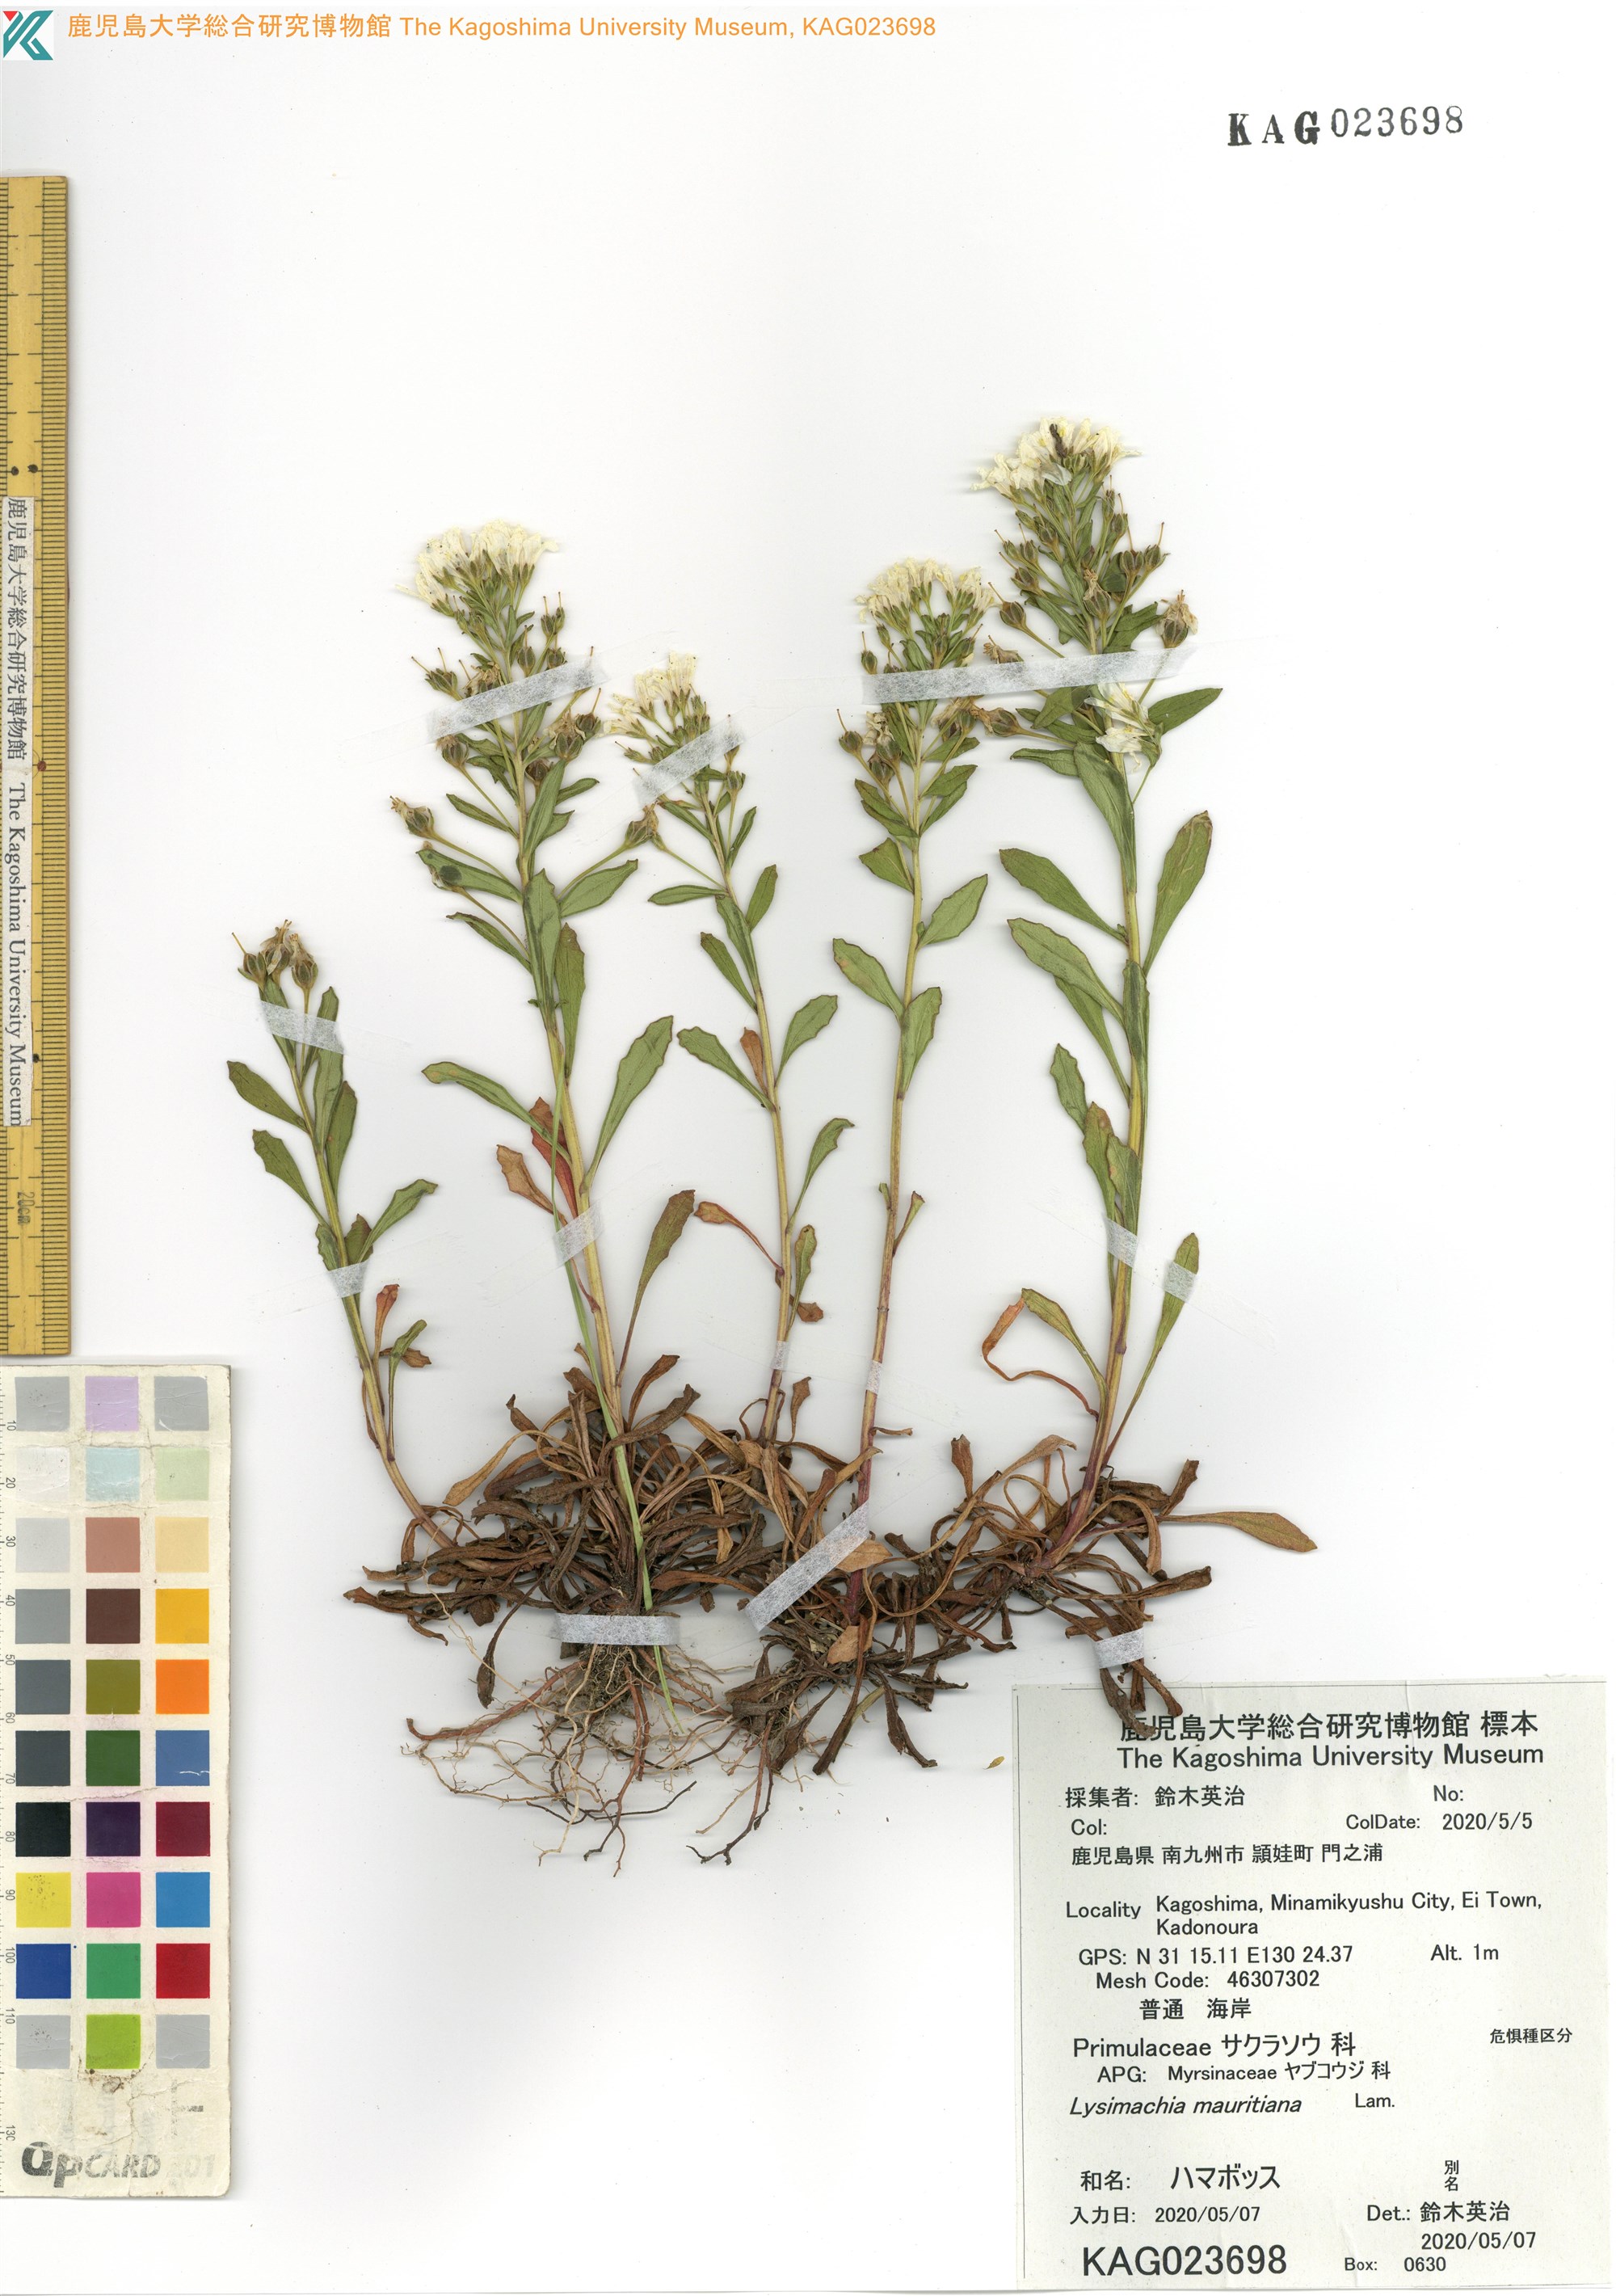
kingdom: Plantae
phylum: Tracheophyta
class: Magnoliopsida
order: Ericales
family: Primulaceae
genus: Lysimachia
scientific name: Lysimachia mauritiana
